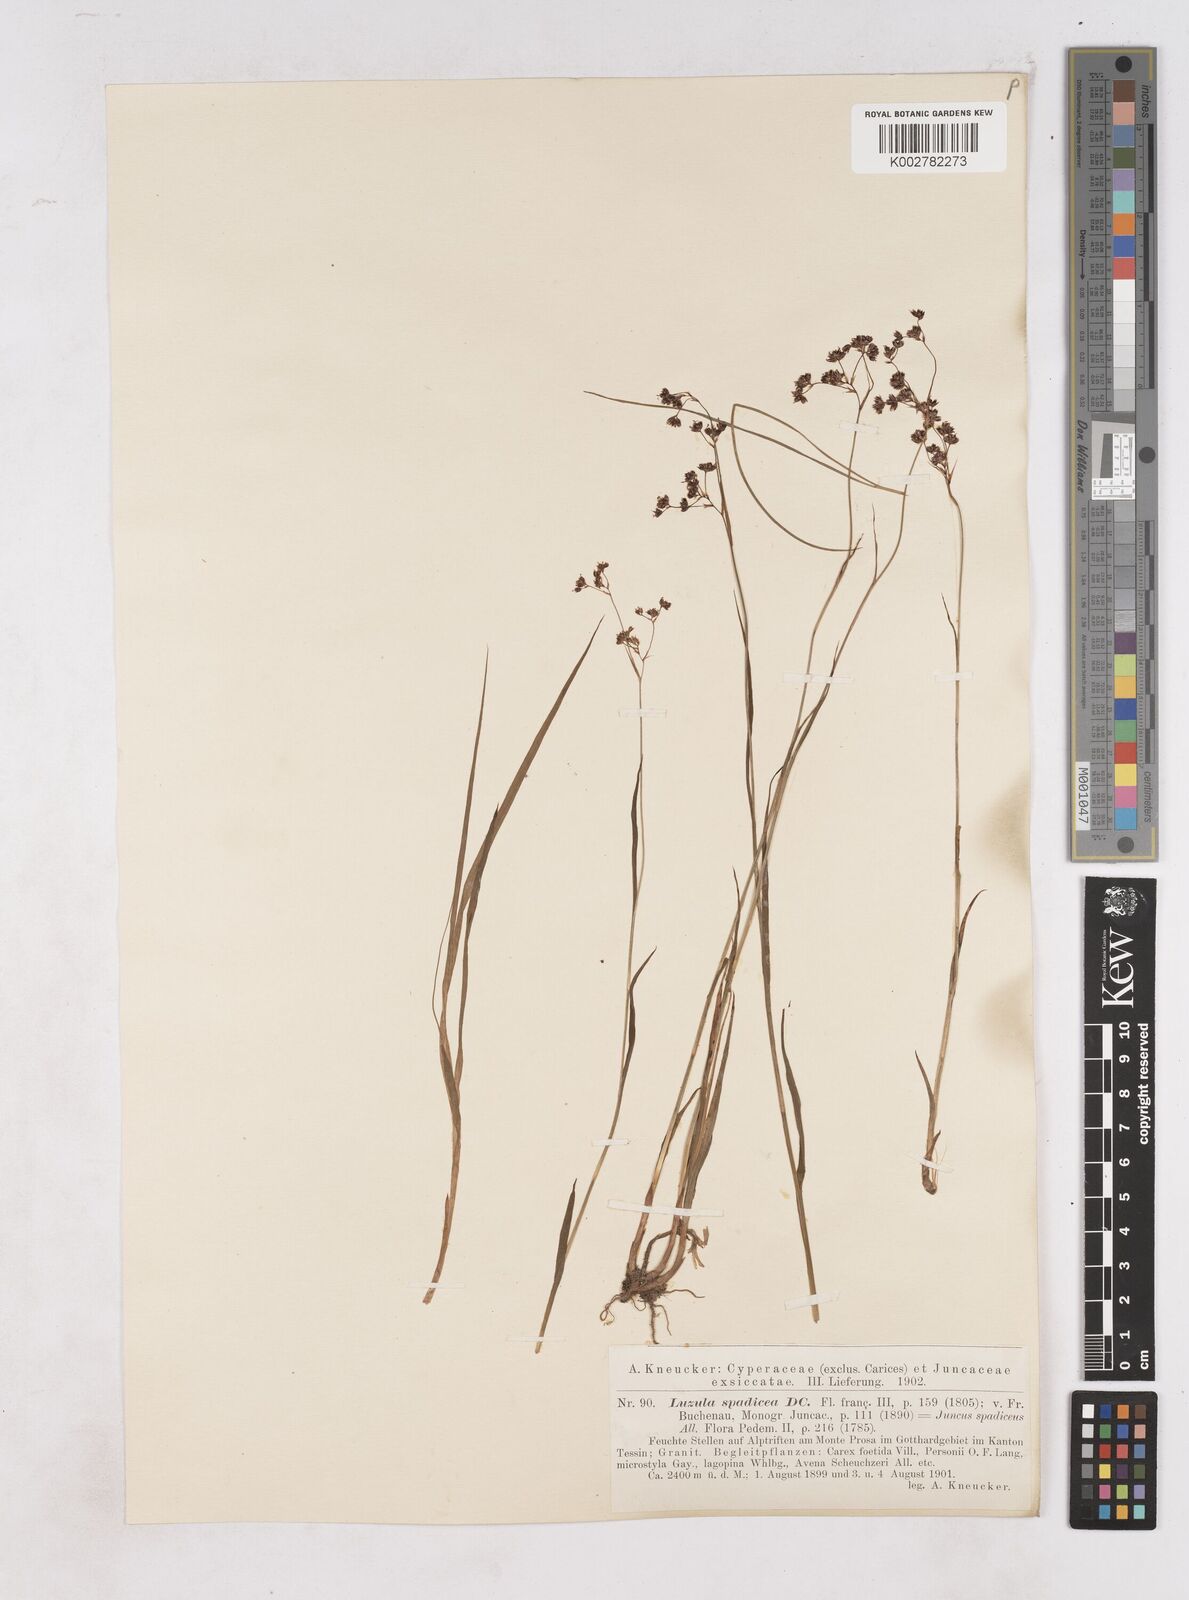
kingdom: Plantae
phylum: Tracheophyta
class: Liliopsida
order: Poales
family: Juncaceae
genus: Luzula
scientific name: Luzula alpinopilosa
